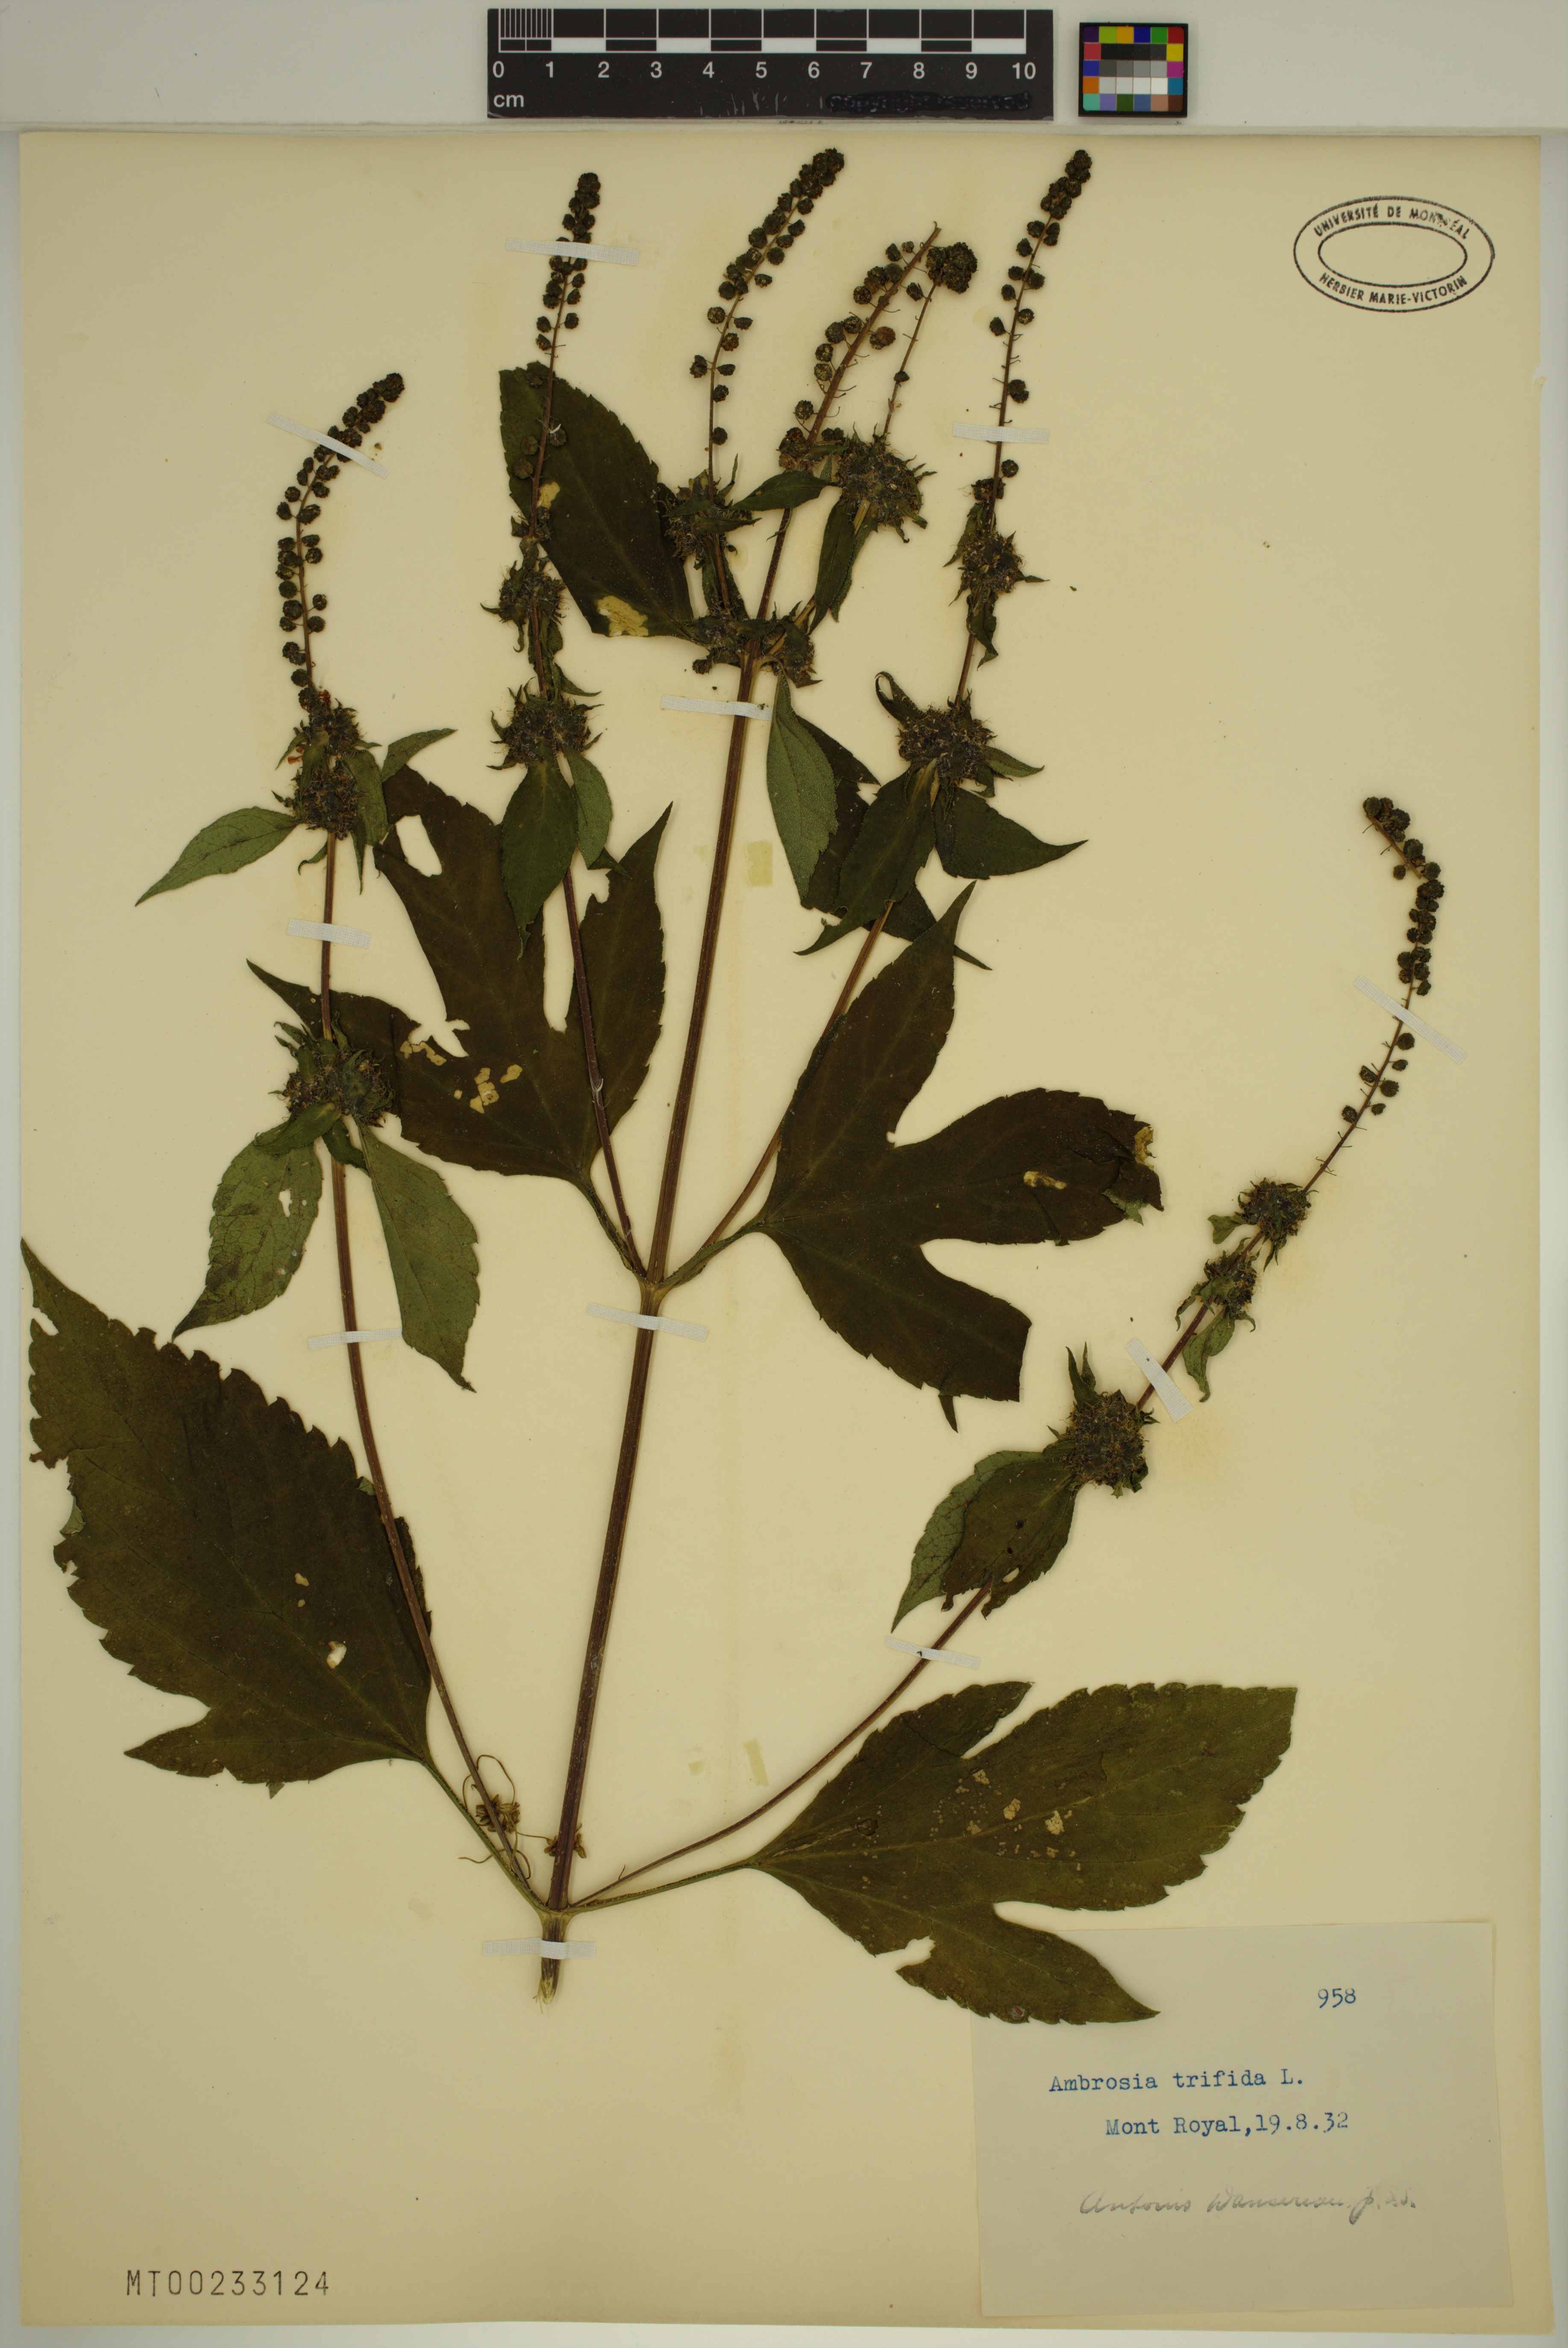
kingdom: Plantae
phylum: Tracheophyta
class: Magnoliopsida
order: Asterales
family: Asteraceae
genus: Ambrosia
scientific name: Ambrosia trifida
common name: Giant ragweed
